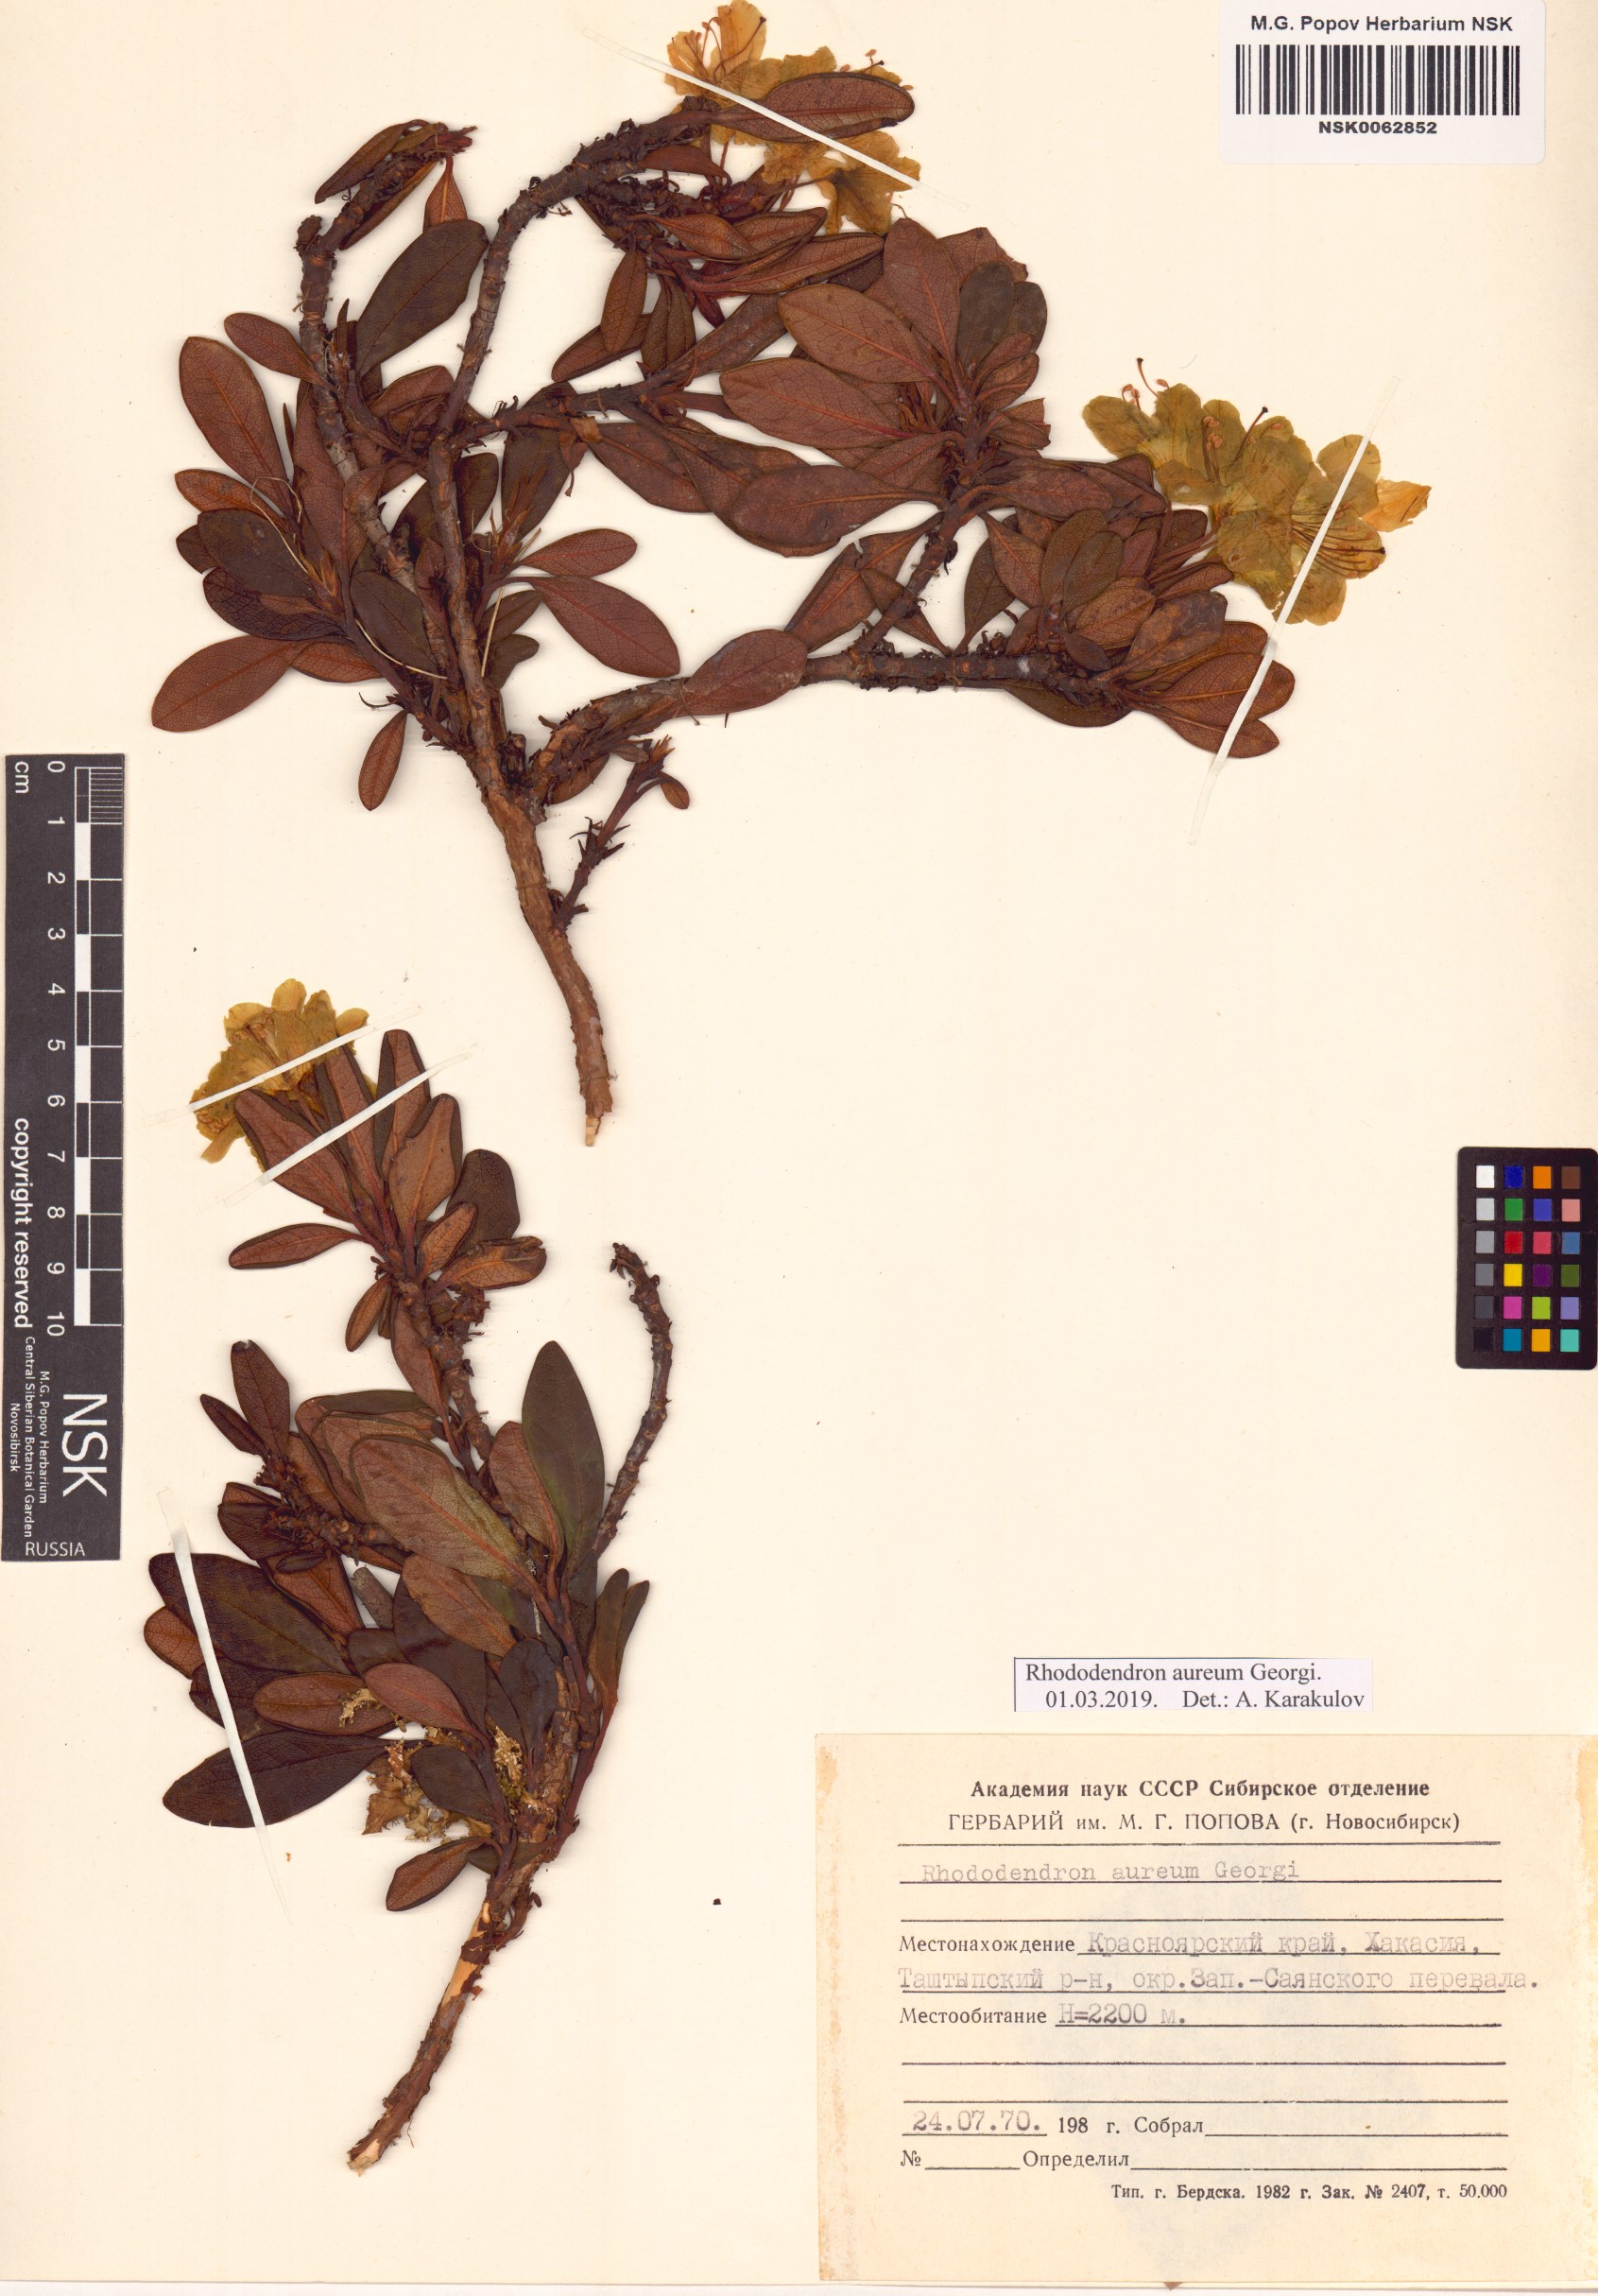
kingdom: Plantae
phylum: Tracheophyta
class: Magnoliopsida
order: Ericales
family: Ericaceae
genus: Rhododendron
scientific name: Rhododendron aureum
